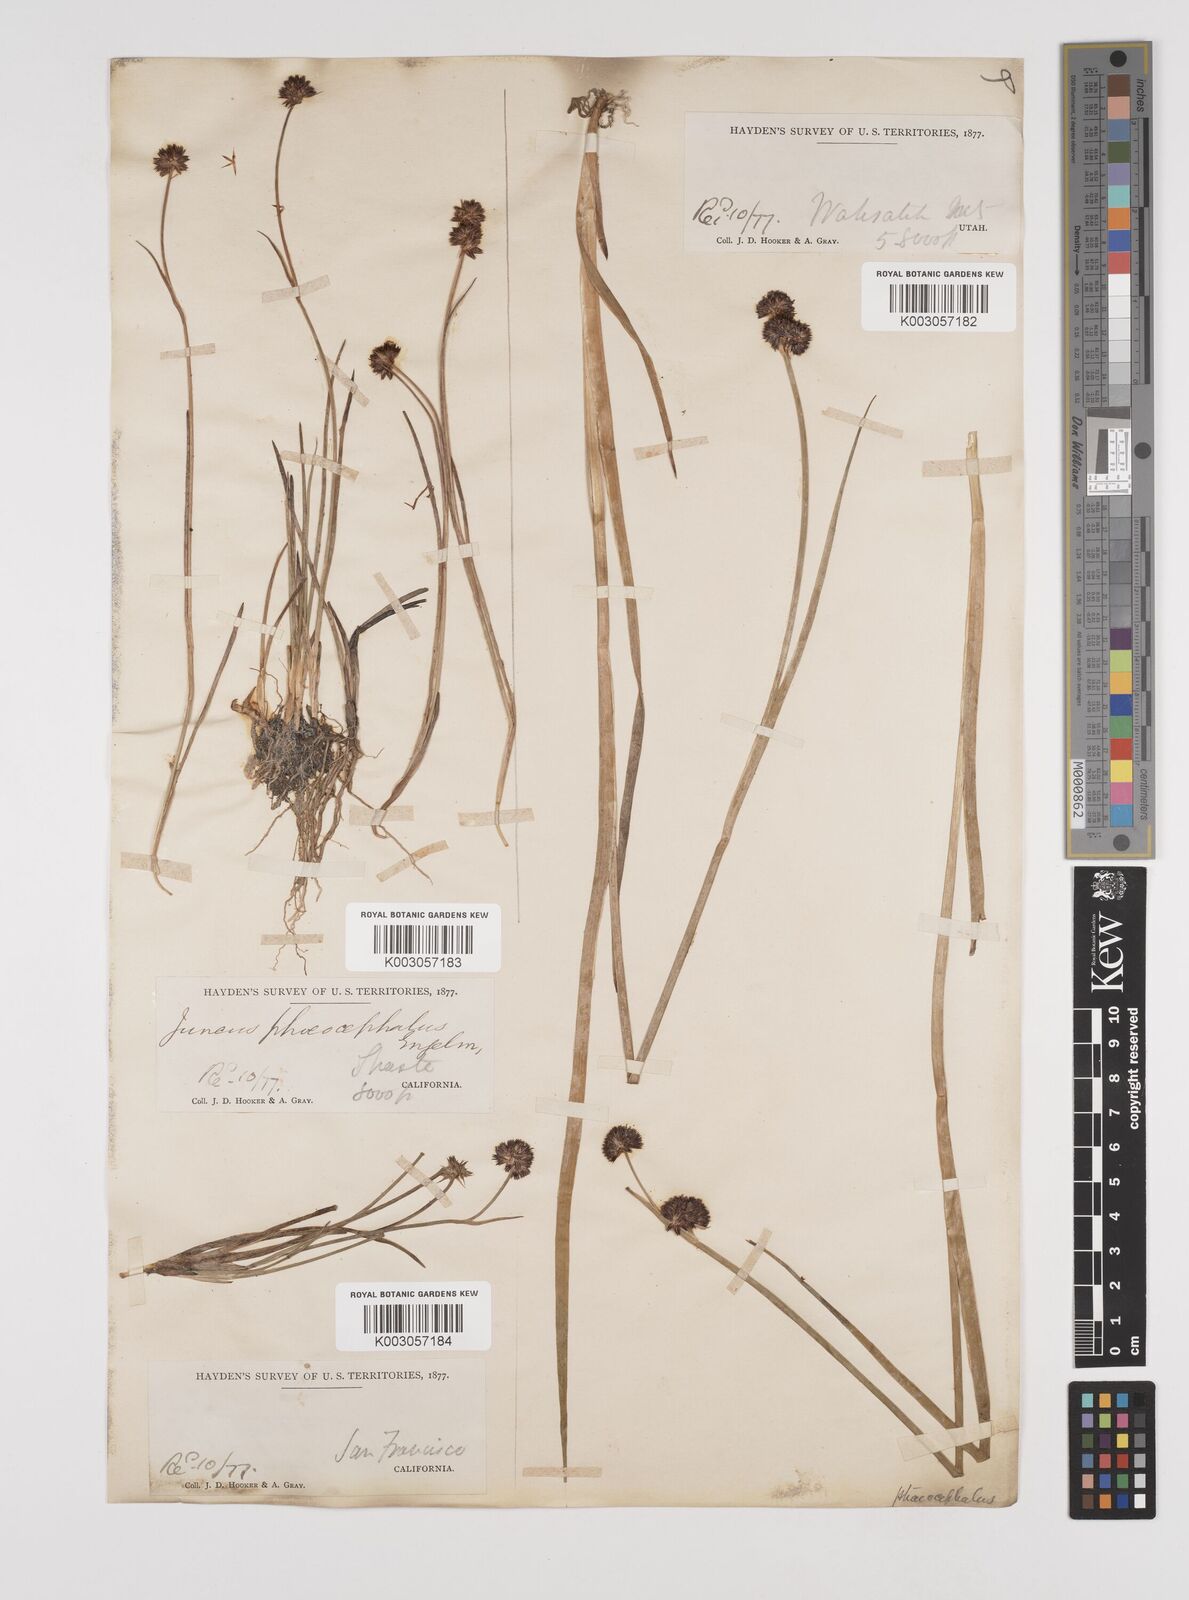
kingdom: Plantae
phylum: Tracheophyta
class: Liliopsida
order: Poales
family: Juncaceae
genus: Juncus
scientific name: Juncus phaeocephalus
